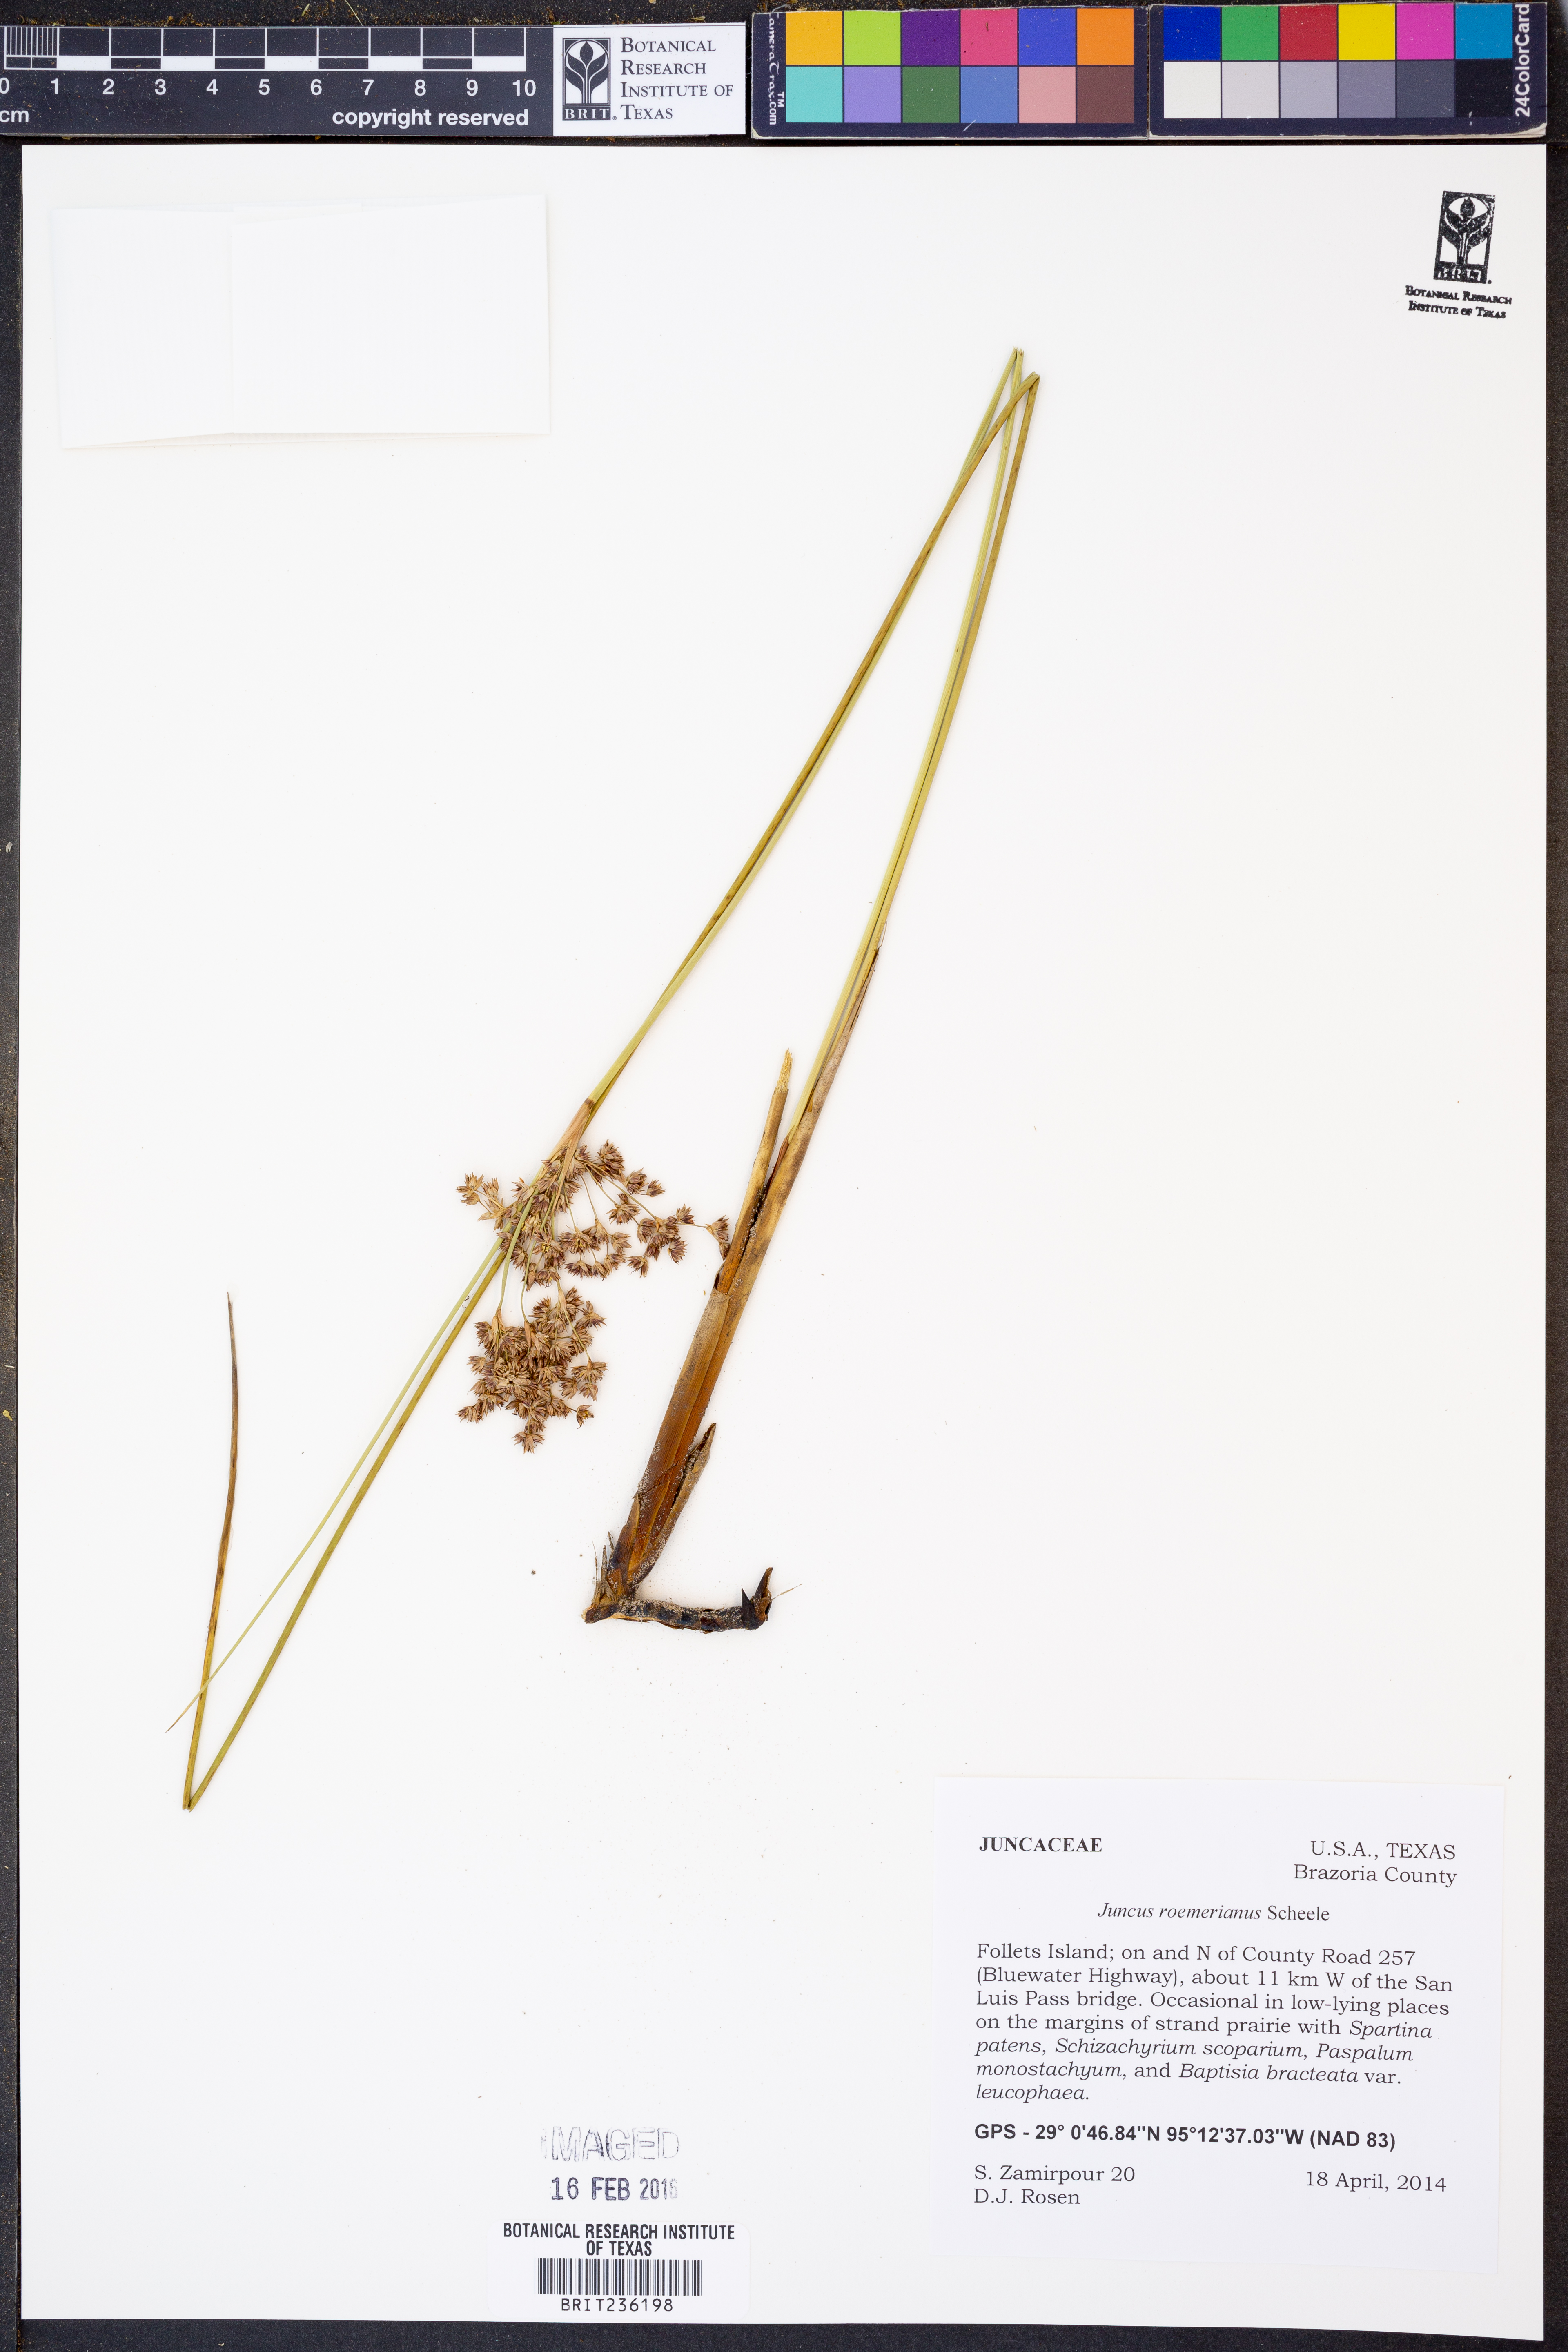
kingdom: Plantae
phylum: Tracheophyta
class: Liliopsida
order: Poales
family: Juncaceae
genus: Juncus
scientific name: Juncus roemerianus
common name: Roemer's rush
